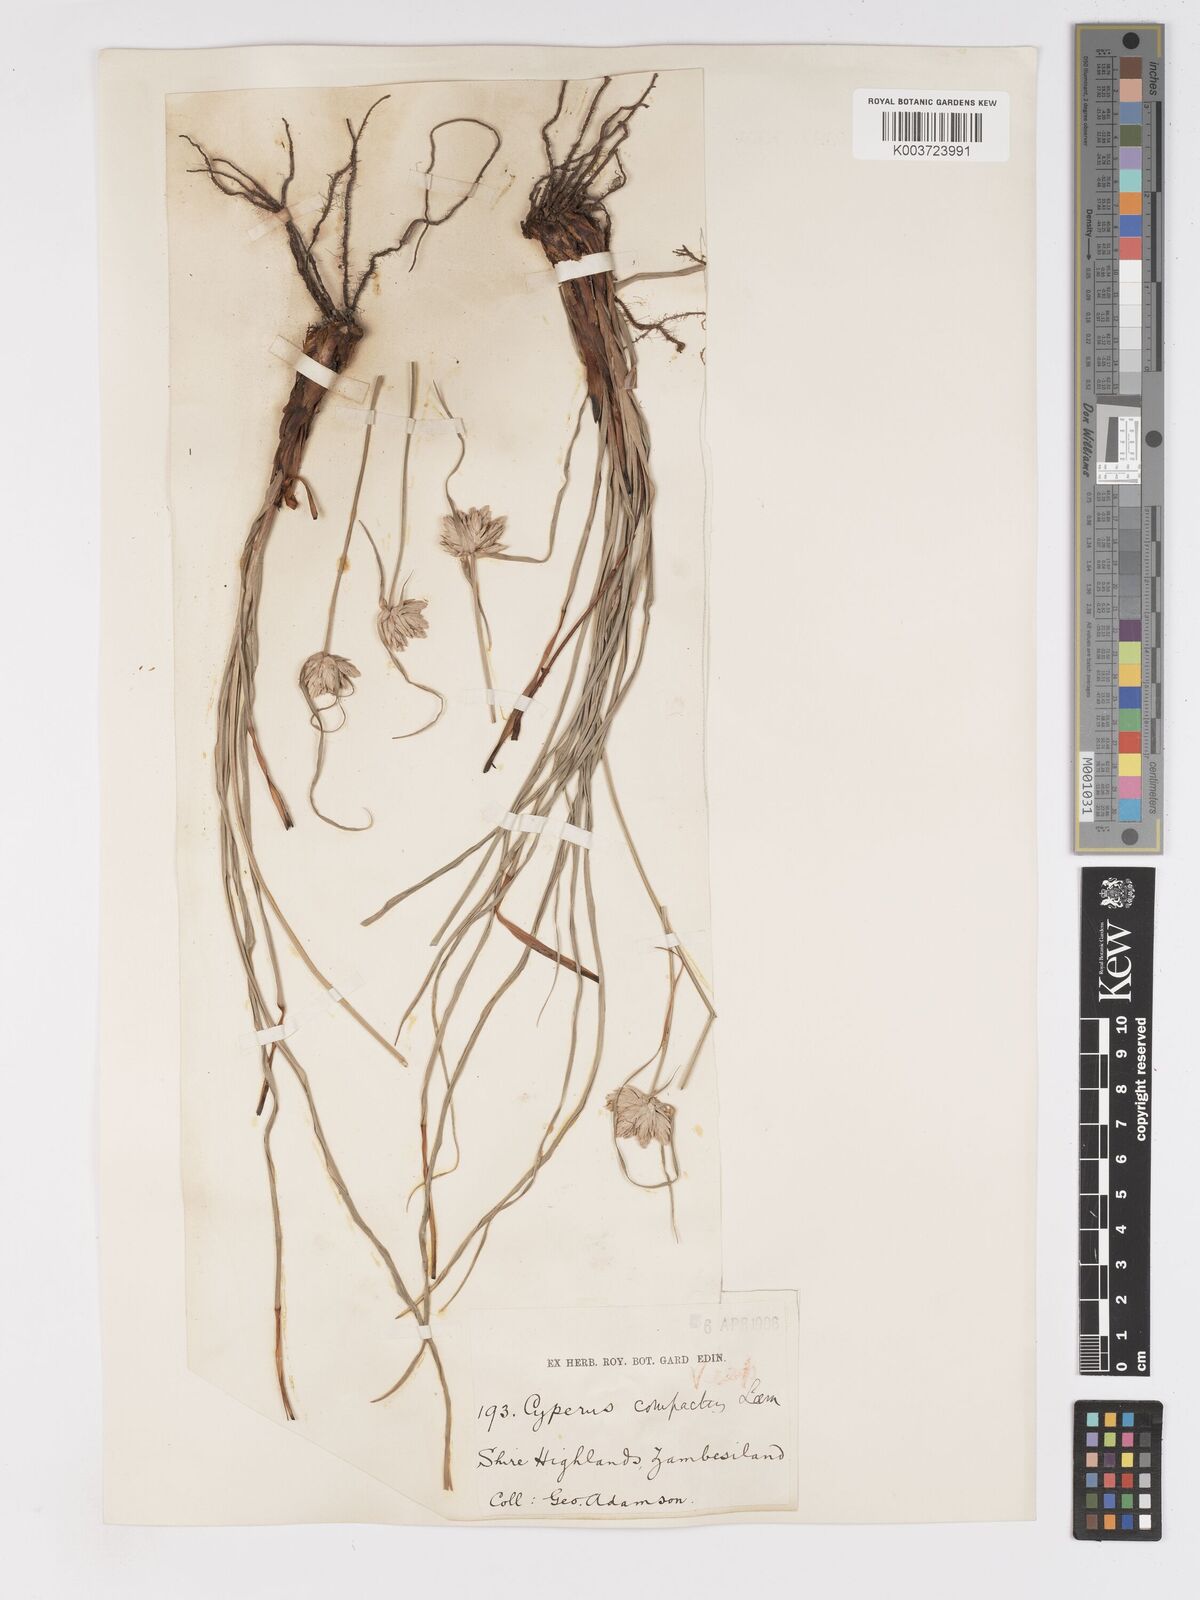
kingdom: Plantae
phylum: Tracheophyta
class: Liliopsida
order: Poales
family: Cyperaceae
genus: Cyperus
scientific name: Cyperus niveus
